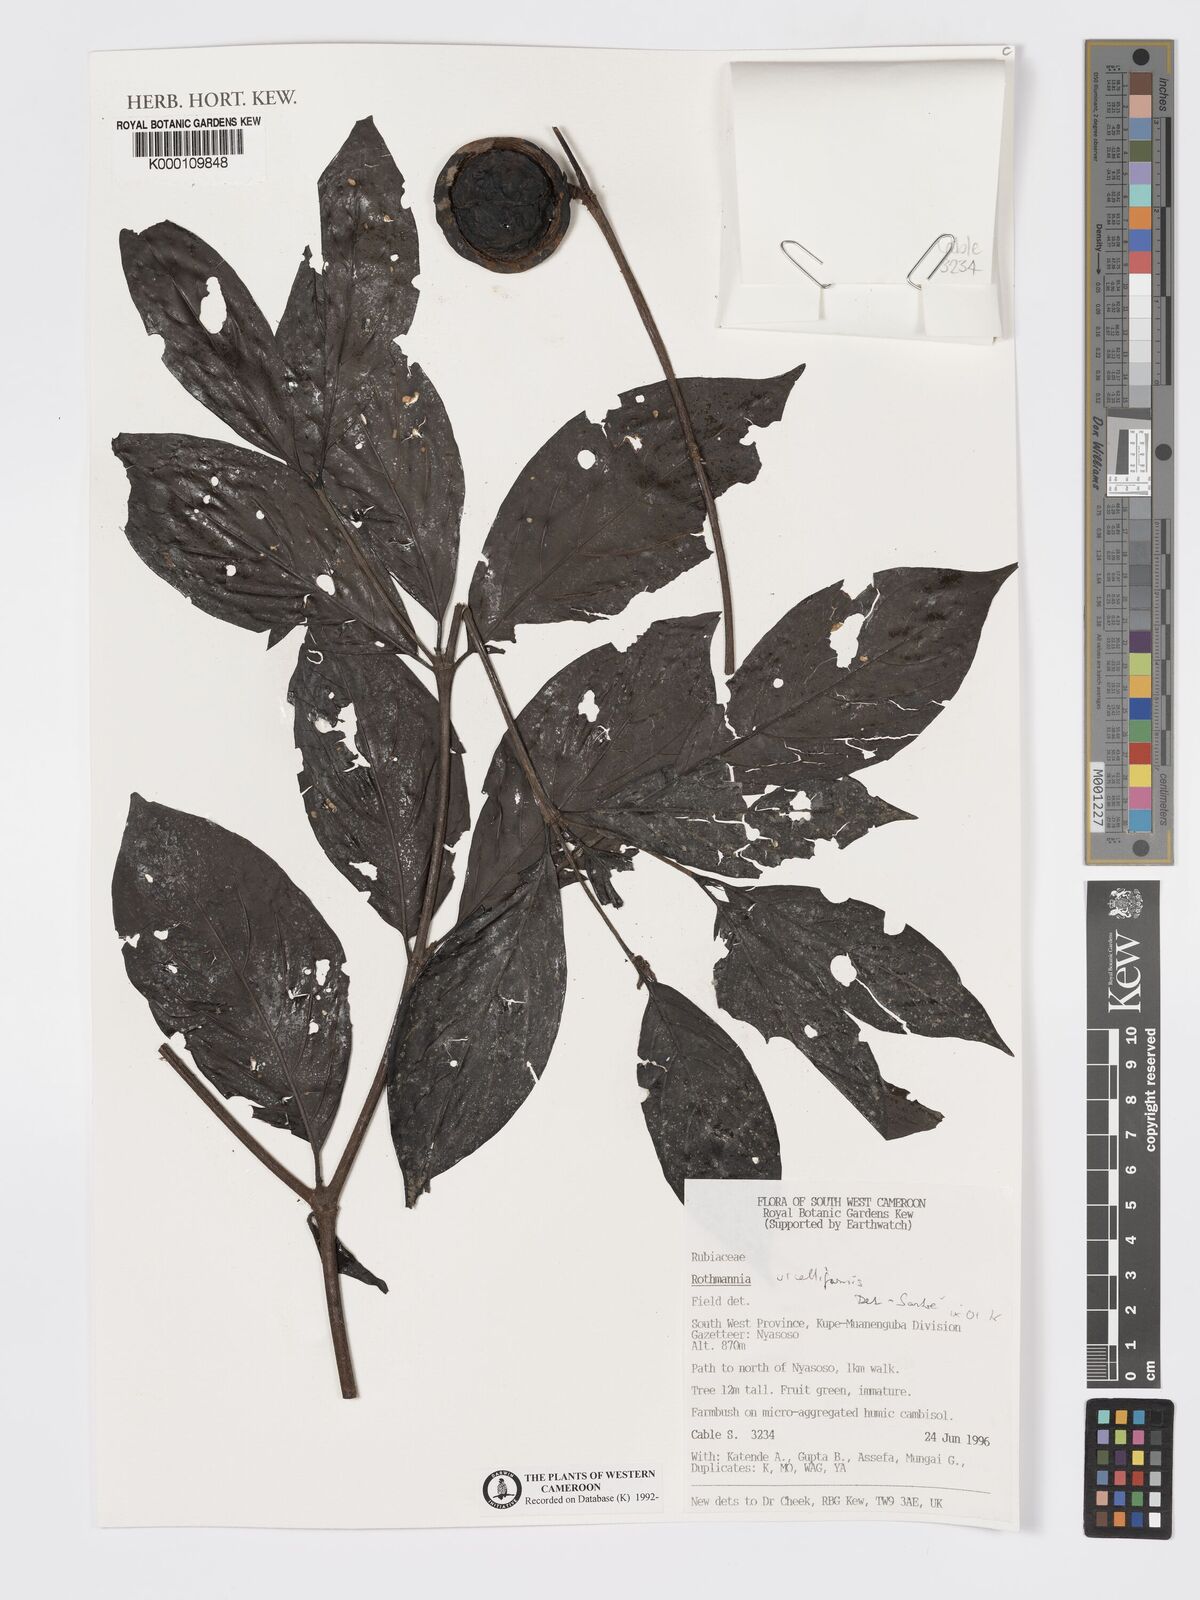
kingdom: Plantae
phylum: Tracheophyta
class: Magnoliopsida
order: Gentianales
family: Rubiaceae
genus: Rothmannia
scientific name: Rothmannia urcelliformis
